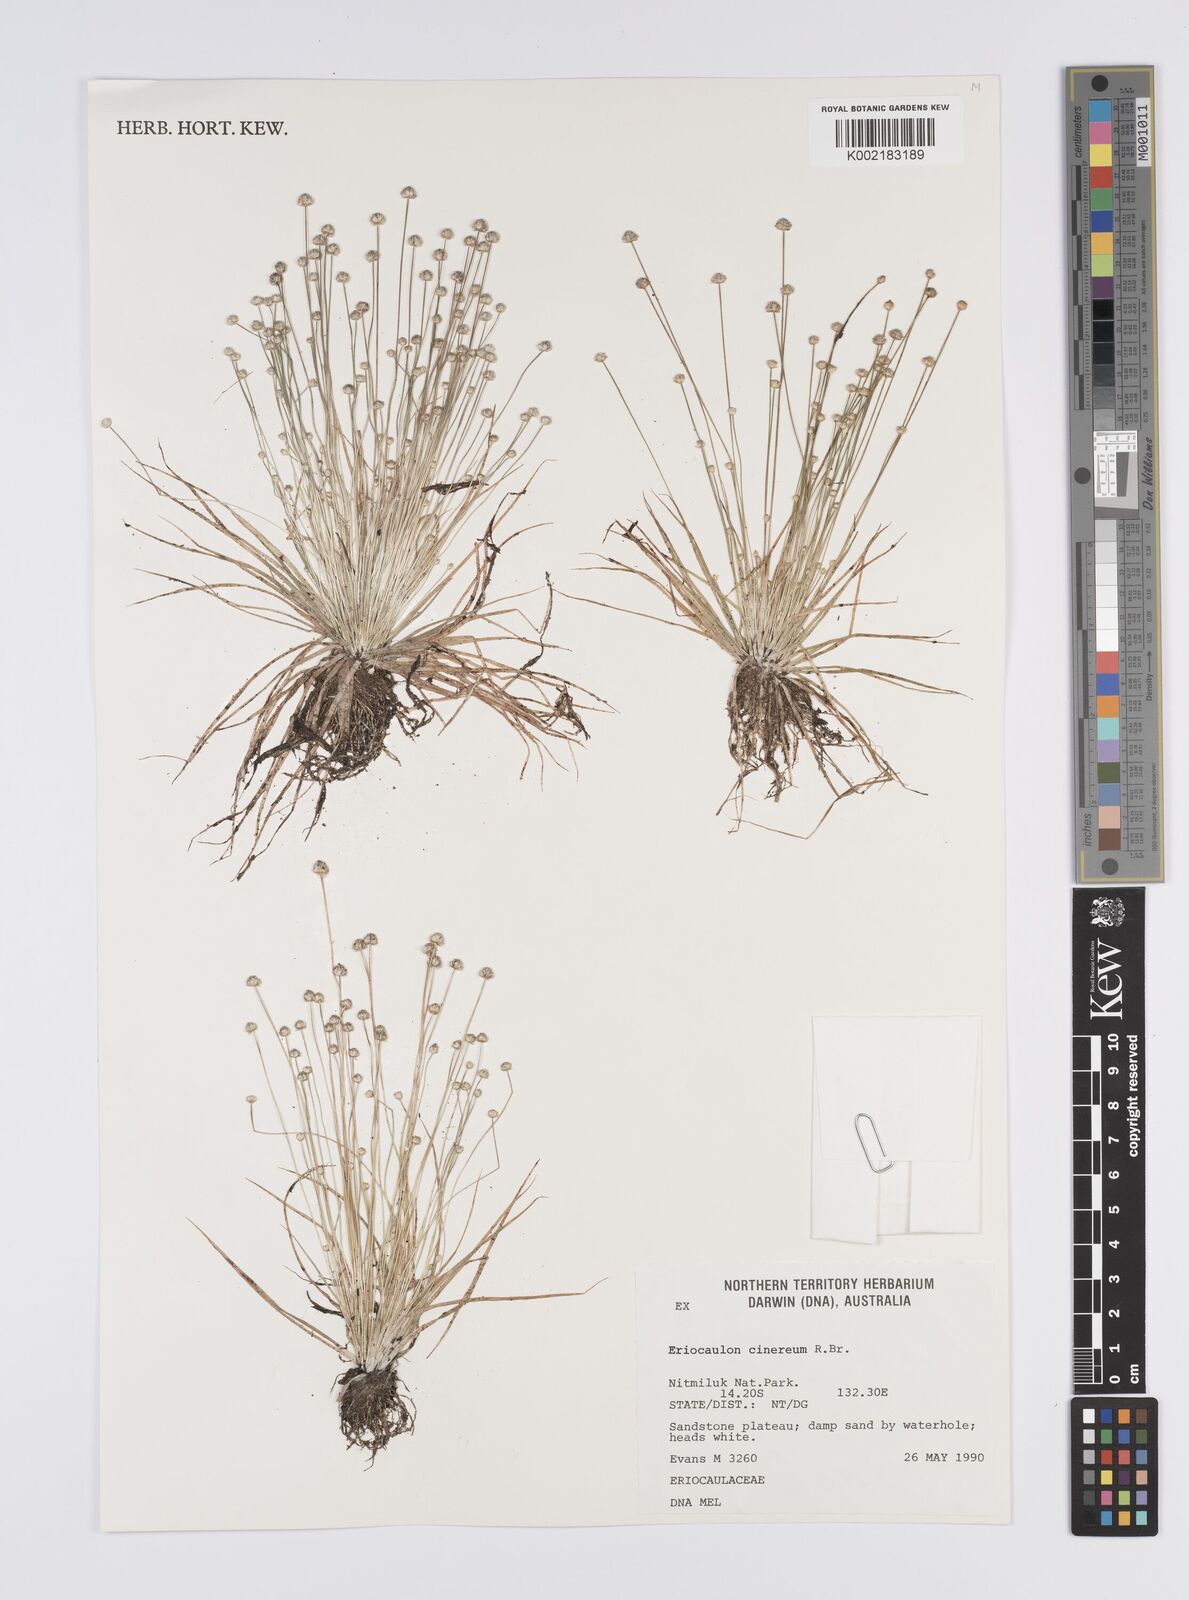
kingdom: Plantae
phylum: Tracheophyta
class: Liliopsida
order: Poales
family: Eriocaulaceae
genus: Eriocaulon
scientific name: Eriocaulon cinereum
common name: Ashy pipewort
